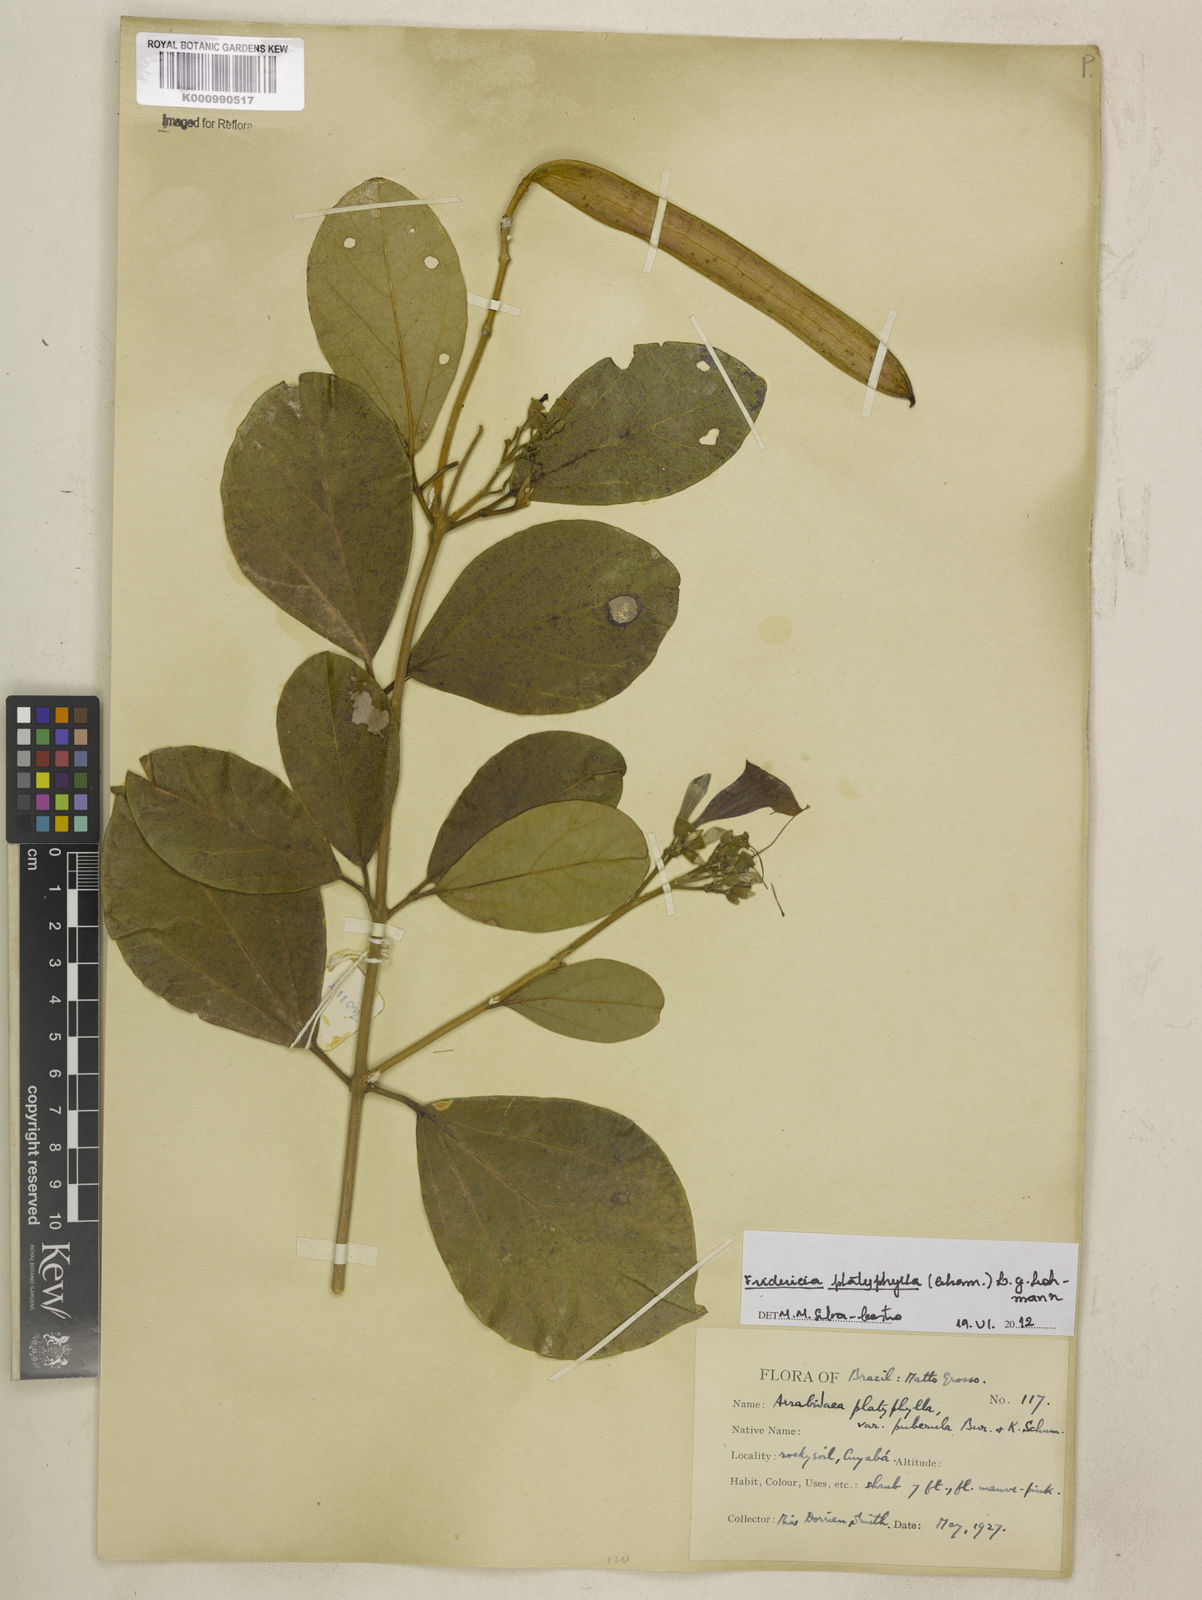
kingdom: Plantae
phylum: Tracheophyta
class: Magnoliopsida
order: Lamiales
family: Bignoniaceae
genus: Fridericia
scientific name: Fridericia platyphylla
